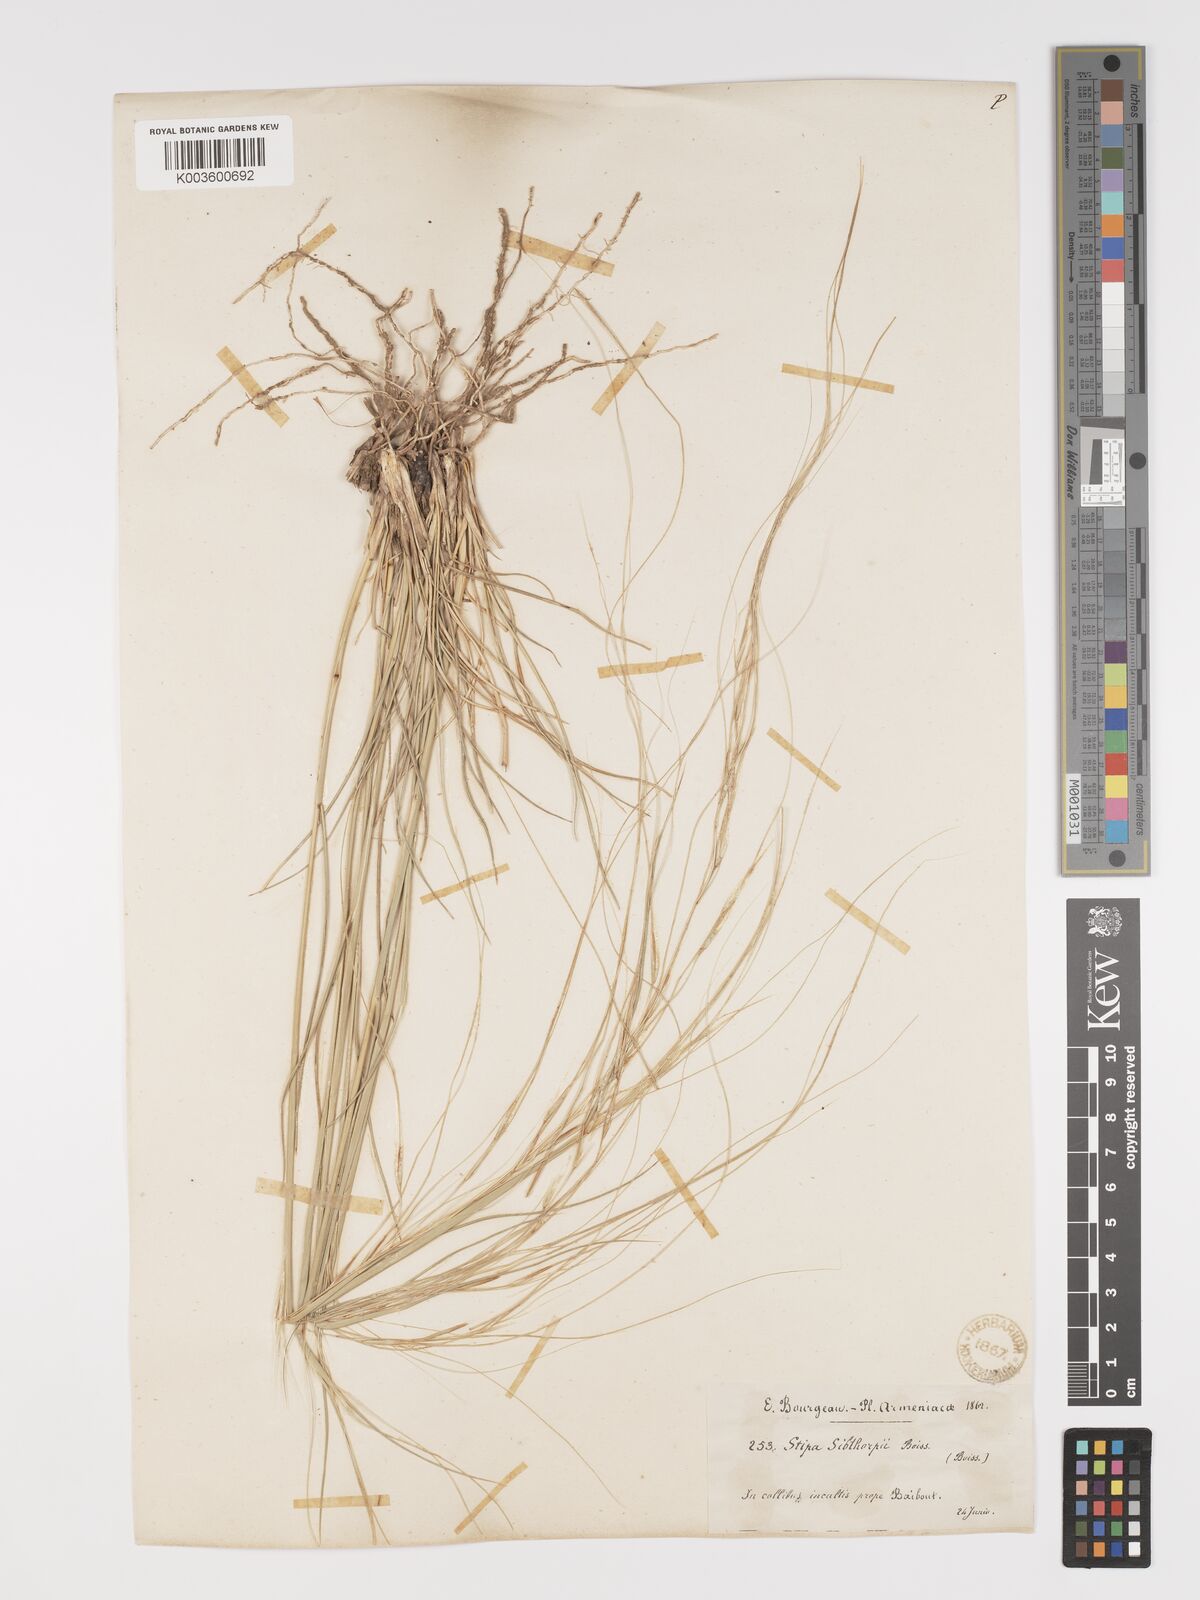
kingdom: Plantae
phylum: Tracheophyta
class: Liliopsida
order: Poales
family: Poaceae
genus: Stipa
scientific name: Stipa holosericea
